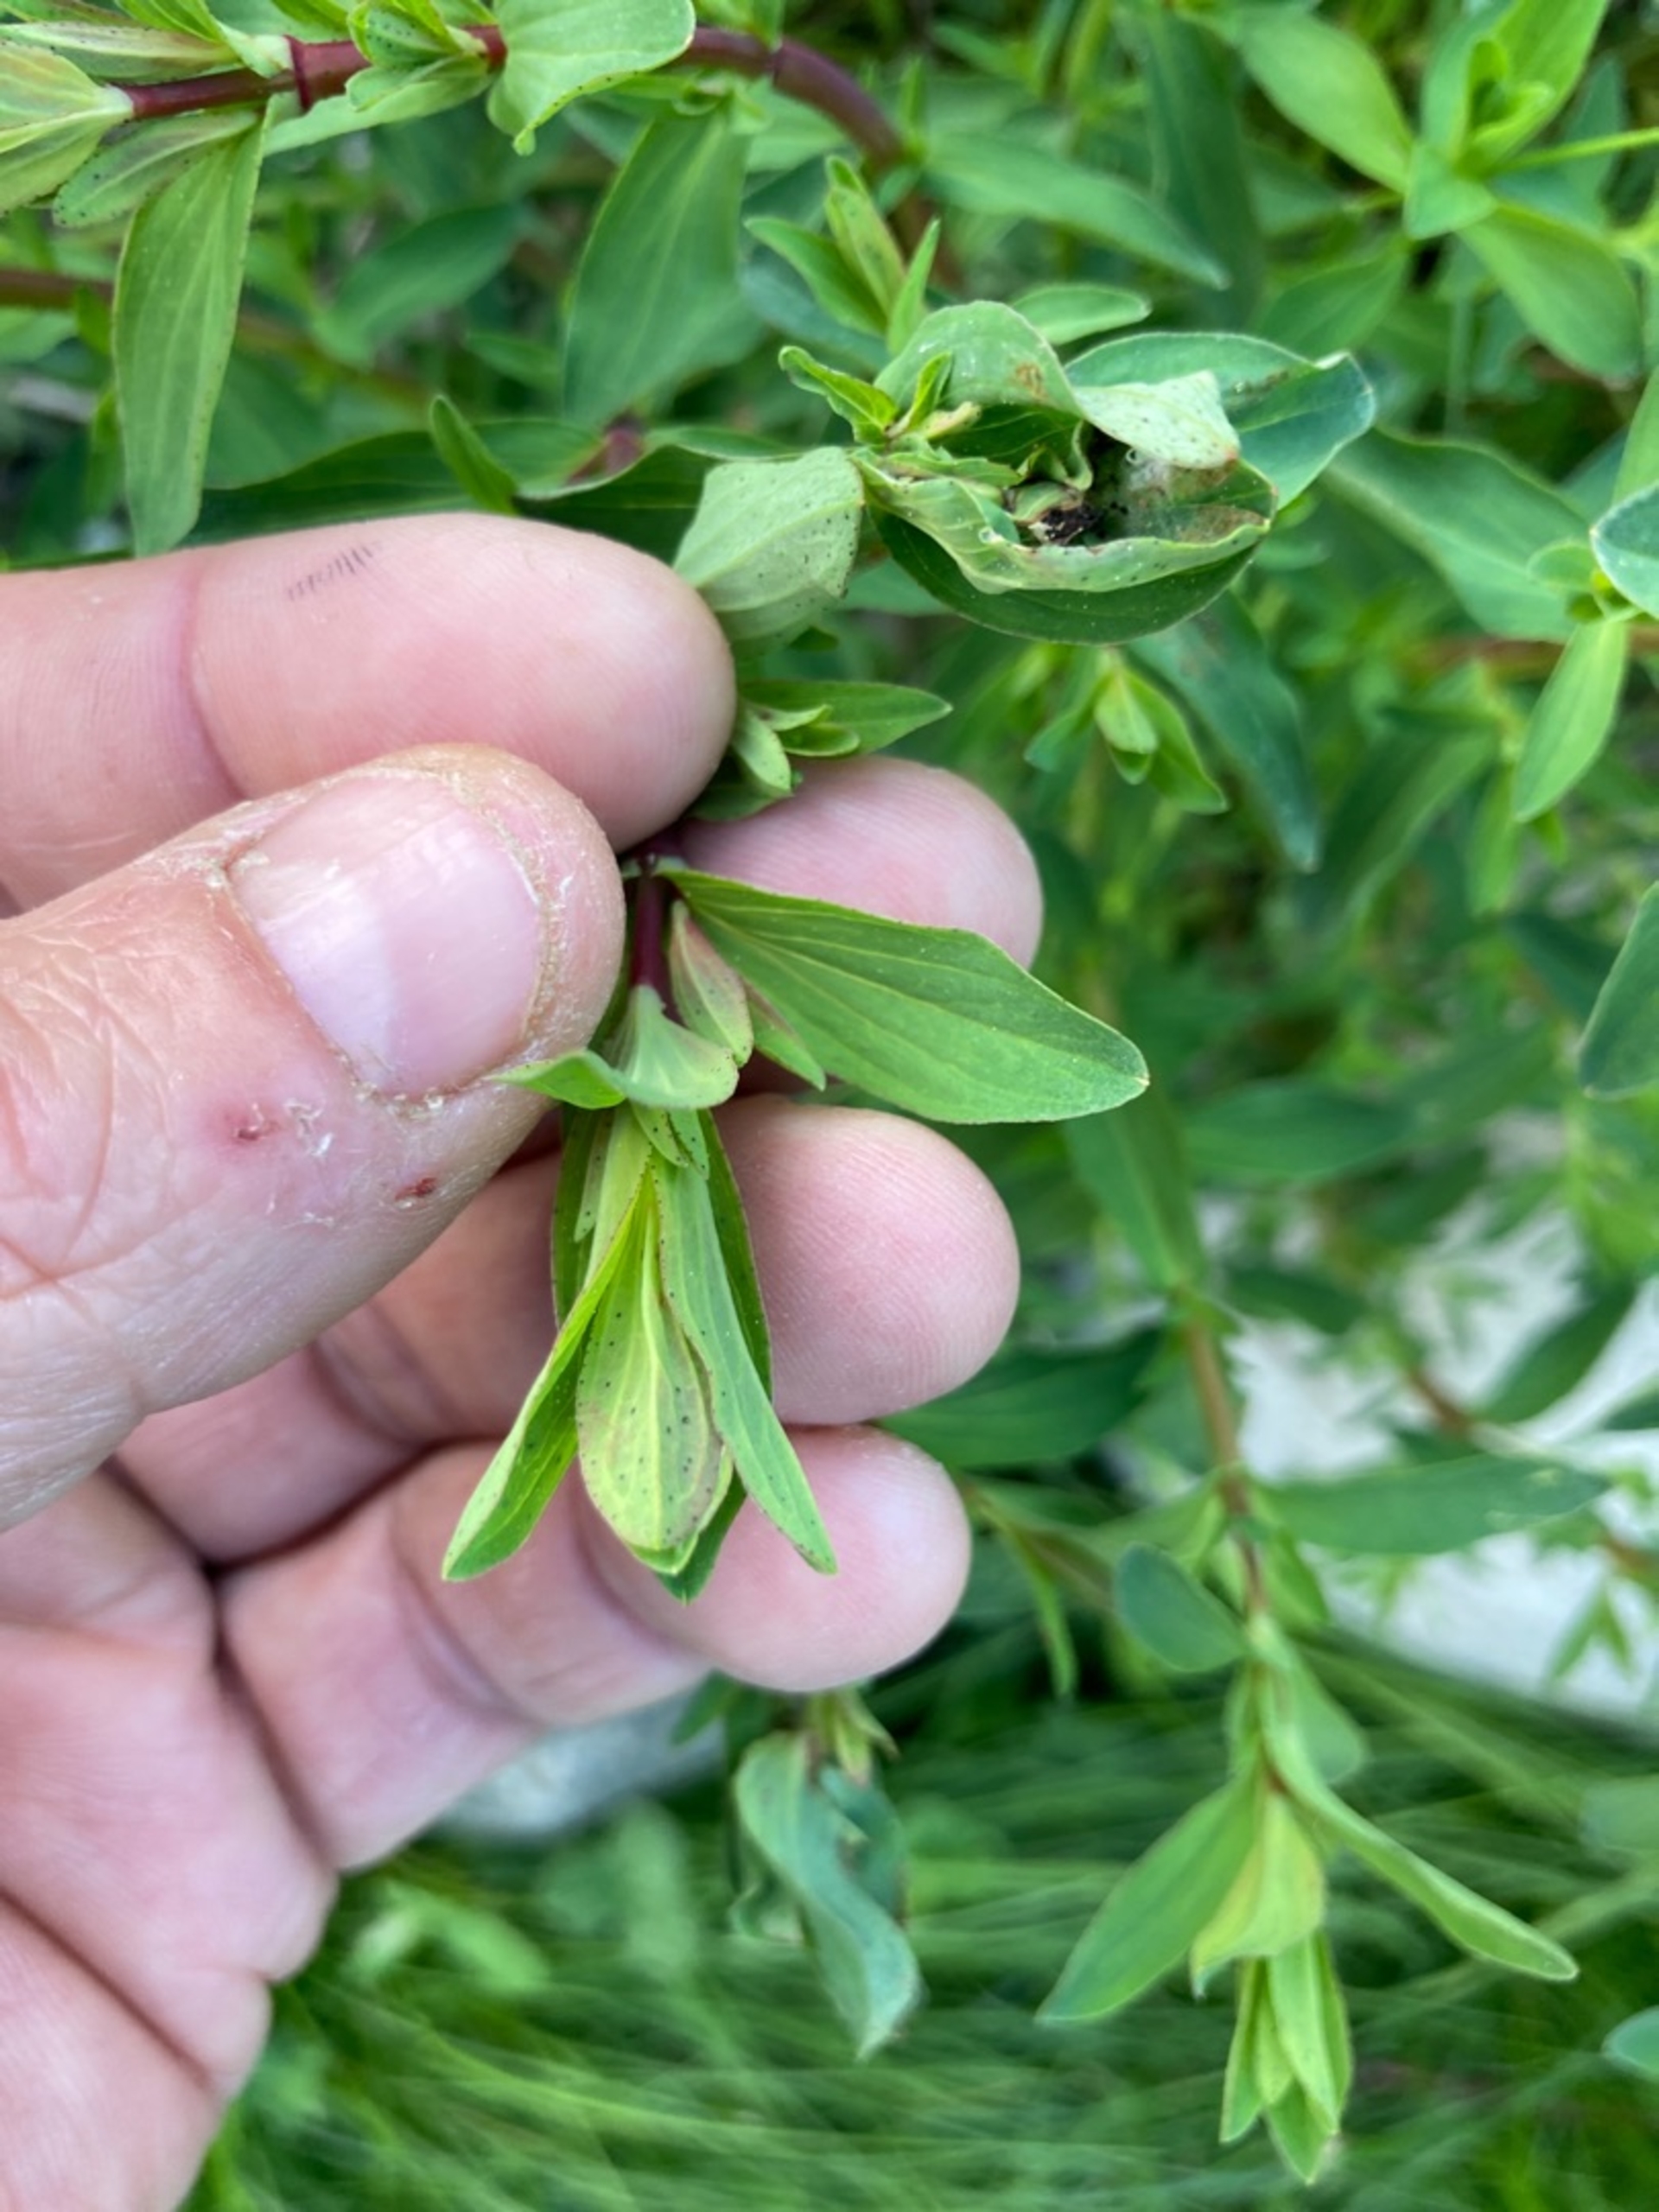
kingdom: Plantae
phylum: Tracheophyta
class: Magnoliopsida
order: Malpighiales
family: Hypericaceae
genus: Hypericum
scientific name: Hypericum perforatum
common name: Prikbladet perikon
